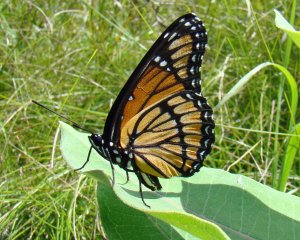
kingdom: Animalia
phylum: Arthropoda
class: Insecta
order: Lepidoptera
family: Nymphalidae
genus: Limenitis
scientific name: Limenitis archippus
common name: Viceroy
